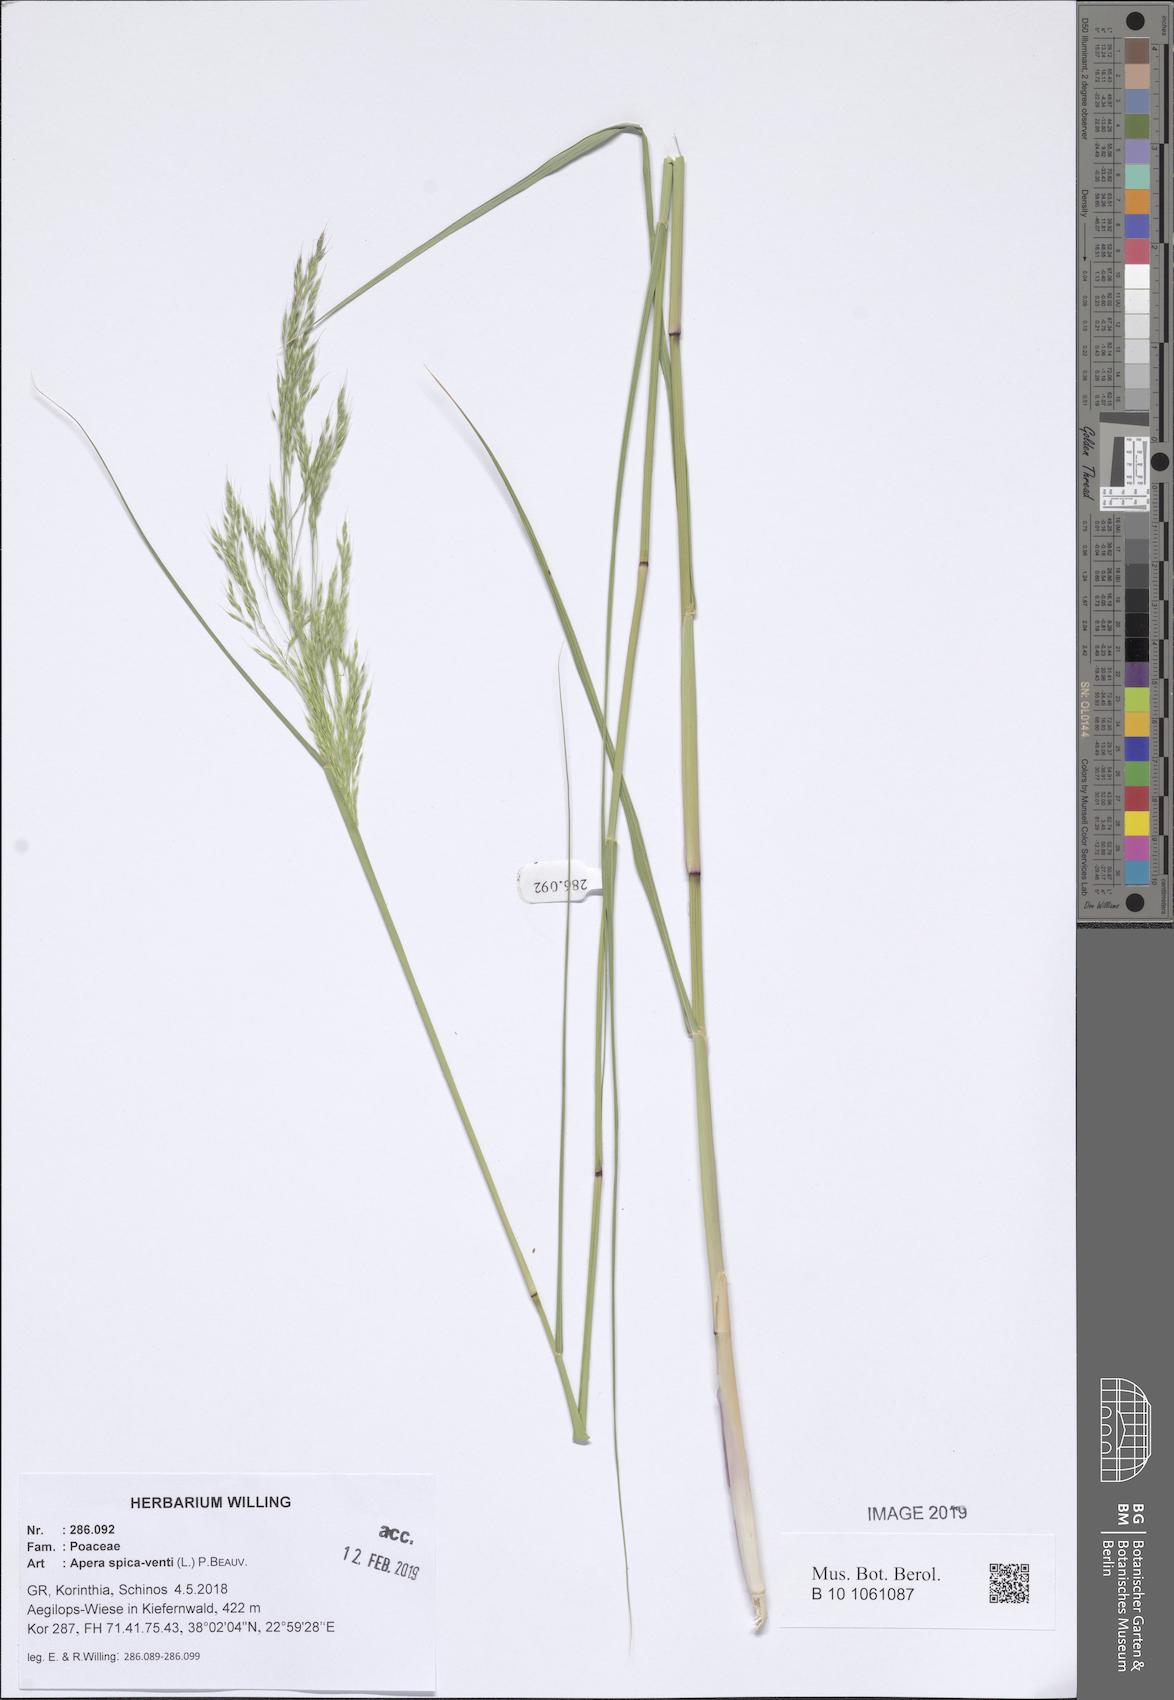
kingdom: Plantae
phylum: Tracheophyta
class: Liliopsida
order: Poales
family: Poaceae
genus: Apera
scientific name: Apera spica-venti
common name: Loose silky-bent
